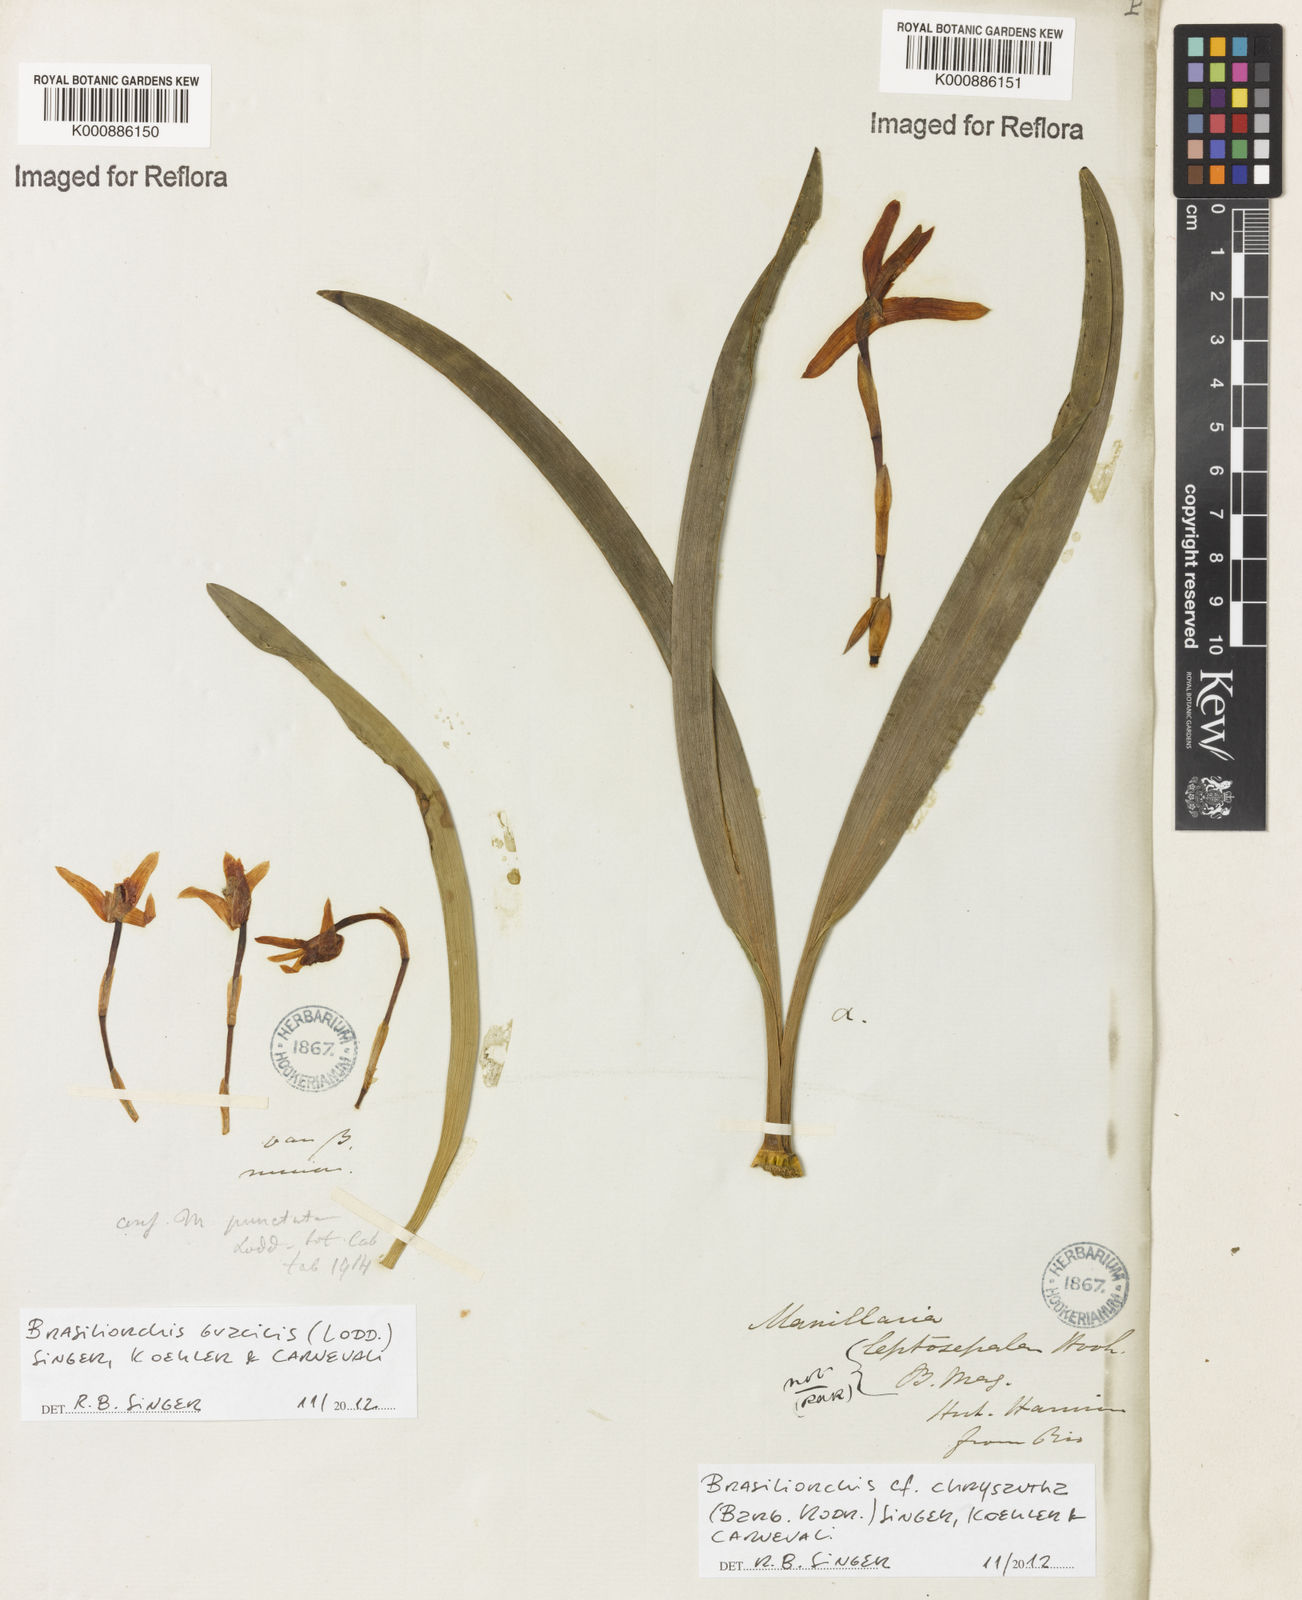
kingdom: Plantae
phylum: Tracheophyta
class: Liliopsida
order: Asparagales
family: Orchidaceae
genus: Maxillaria
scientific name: Maxillaria
